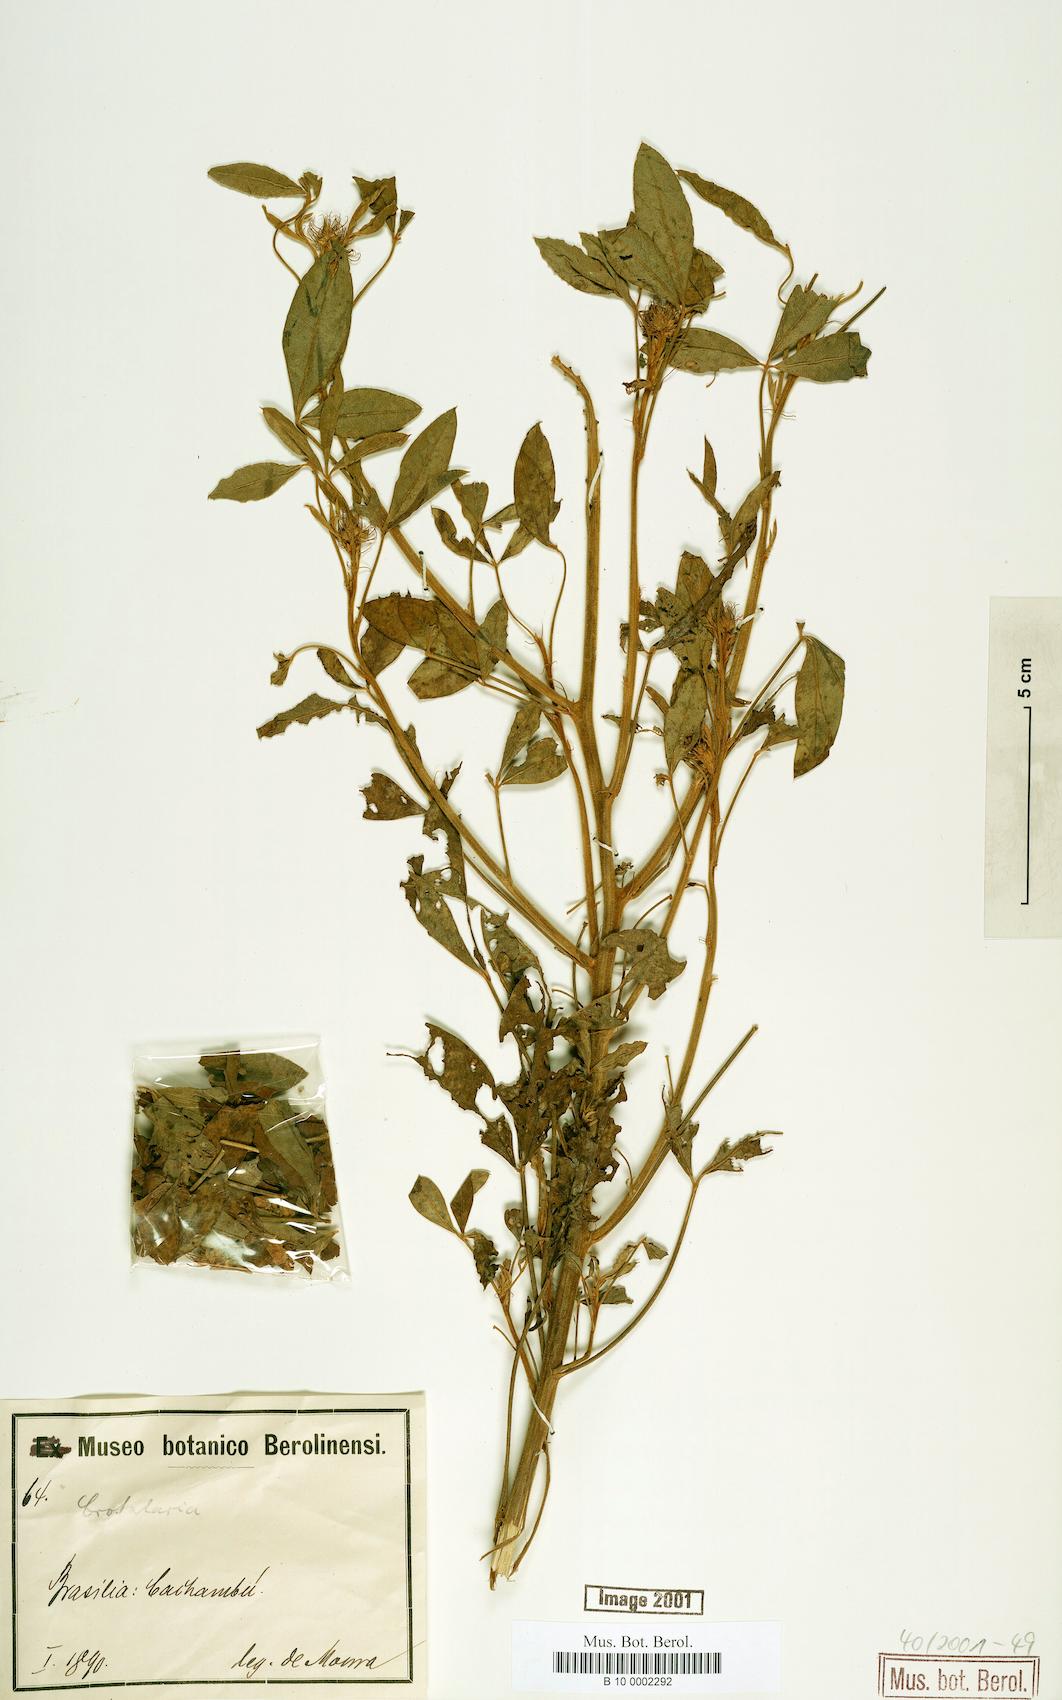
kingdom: Plantae
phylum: Tracheophyta
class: Magnoliopsida
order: Fabales
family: Fabaceae
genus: Crotalaria
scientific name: Crotalaria micans
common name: Caracas rattlebox
